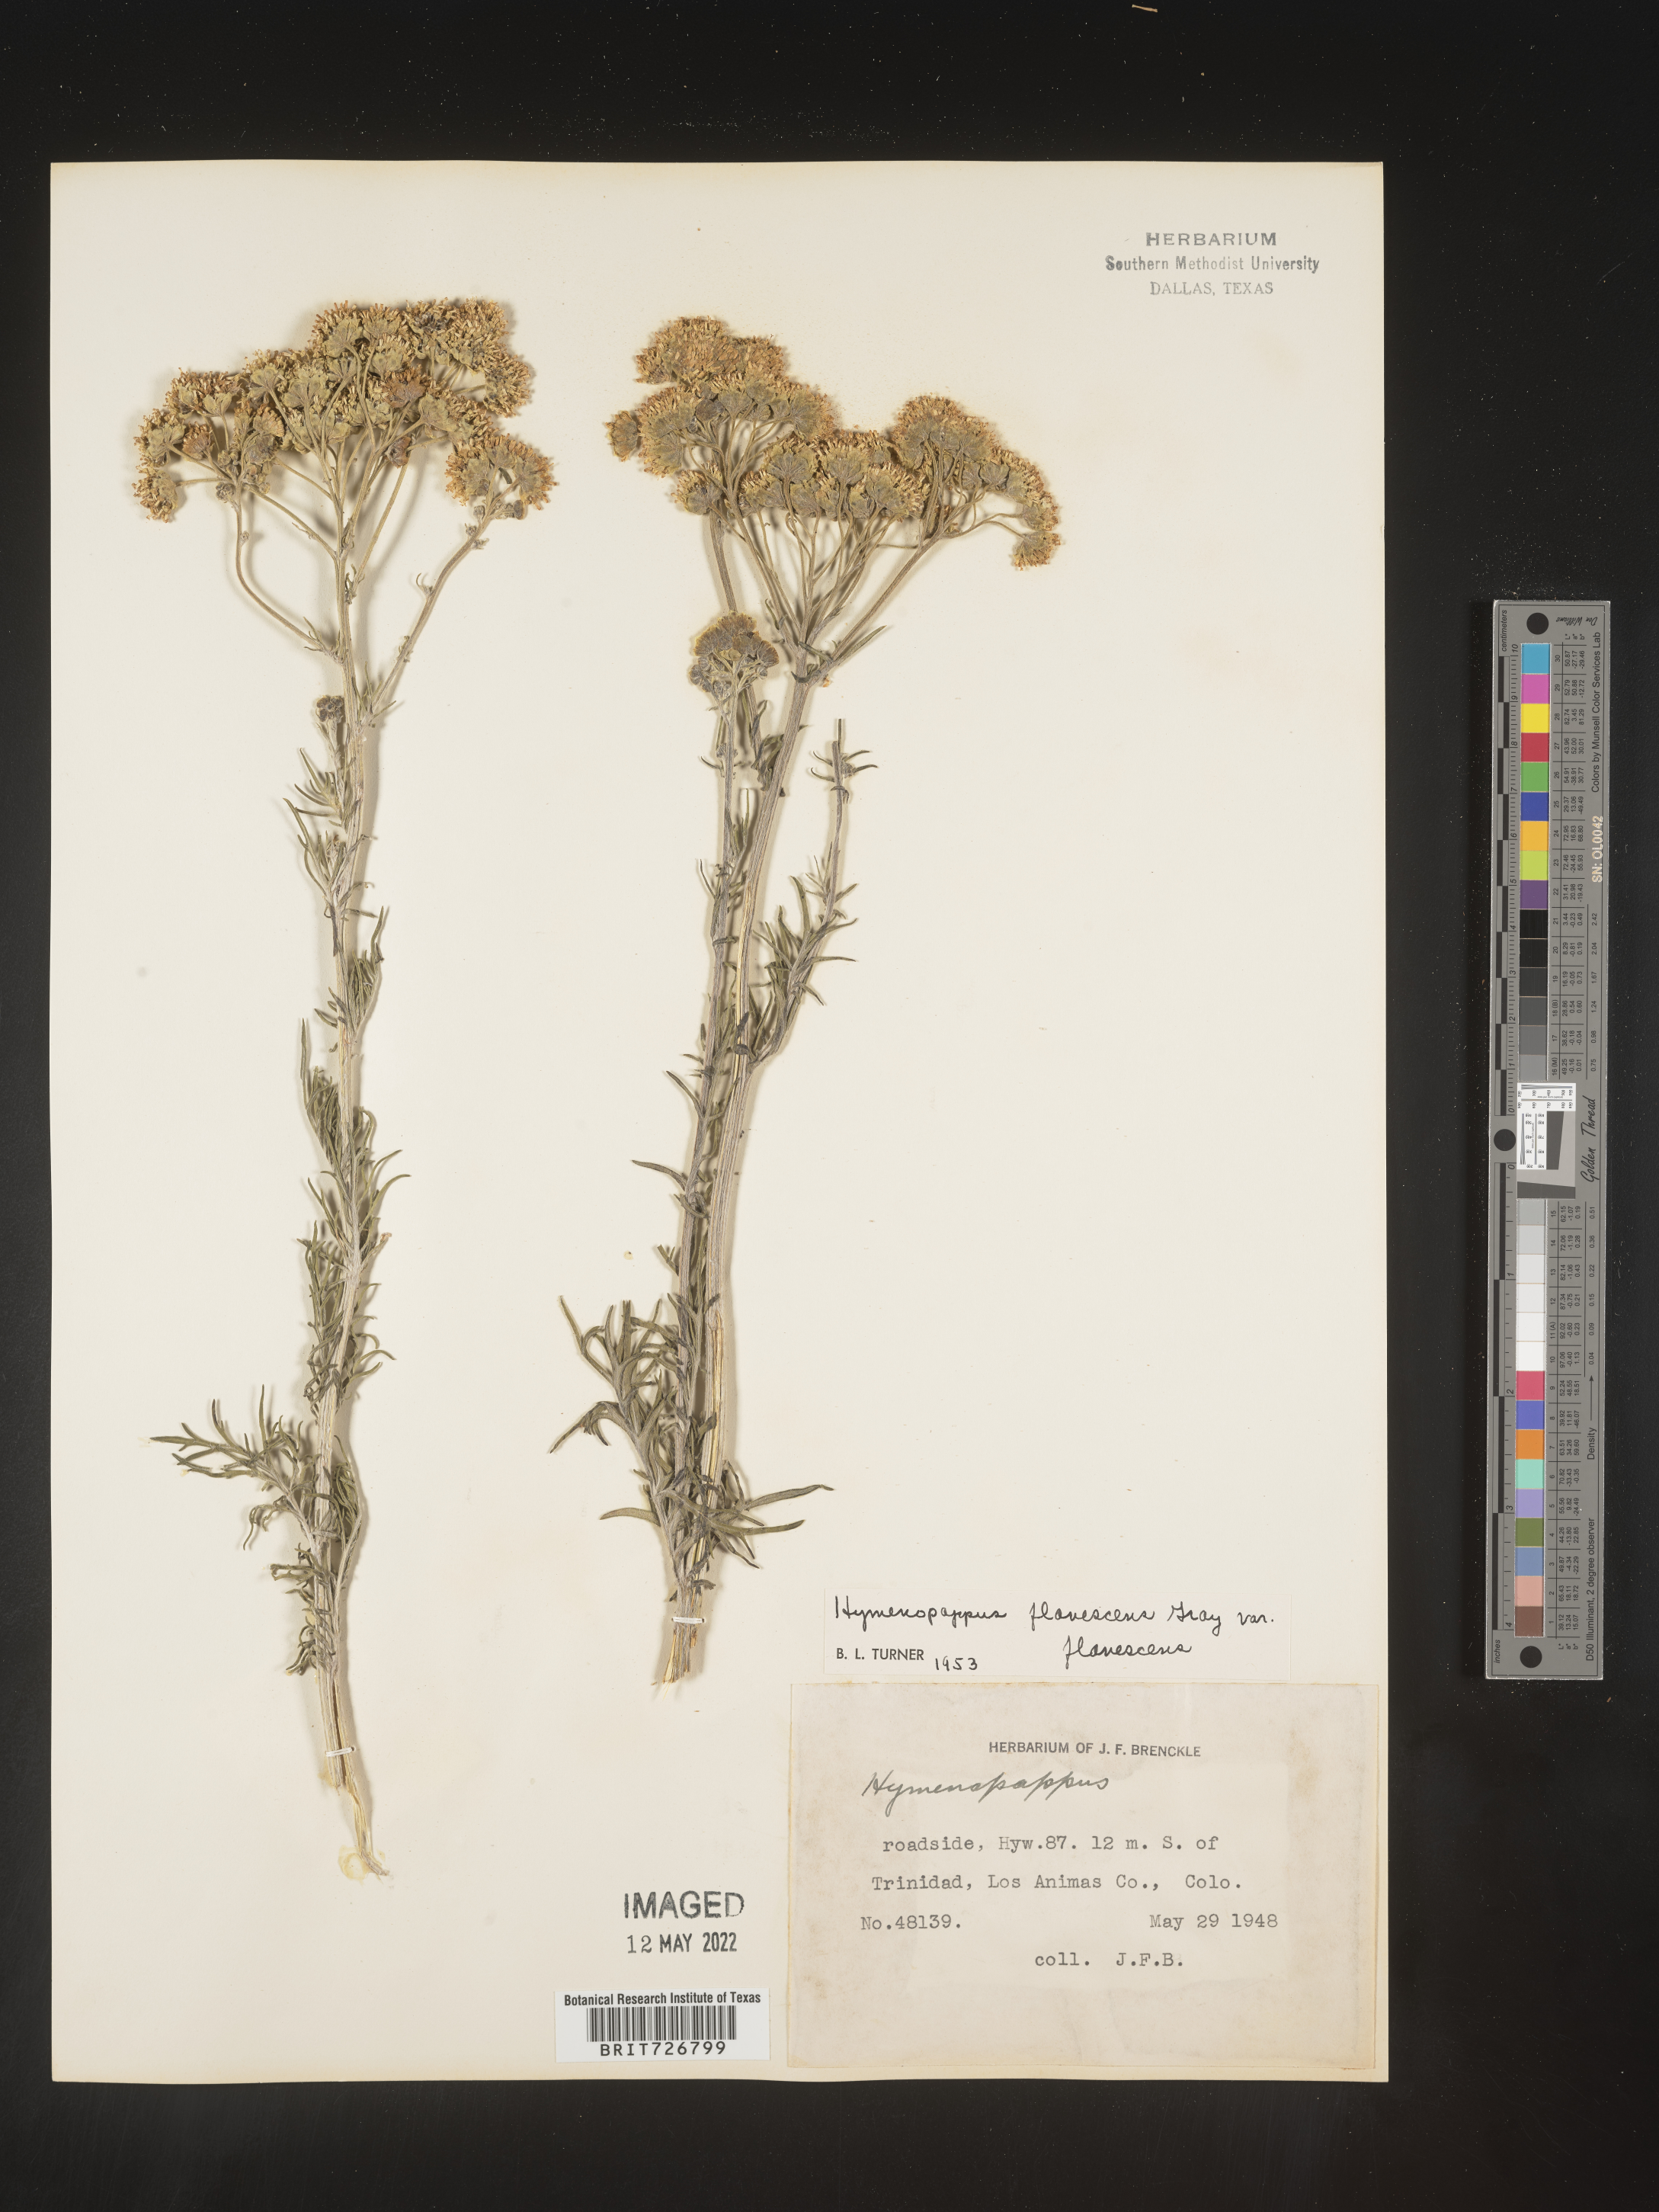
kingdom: Plantae
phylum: Tracheophyta
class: Magnoliopsida
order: Asterales
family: Asteraceae
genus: Hymenopappus
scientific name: Hymenopappus
